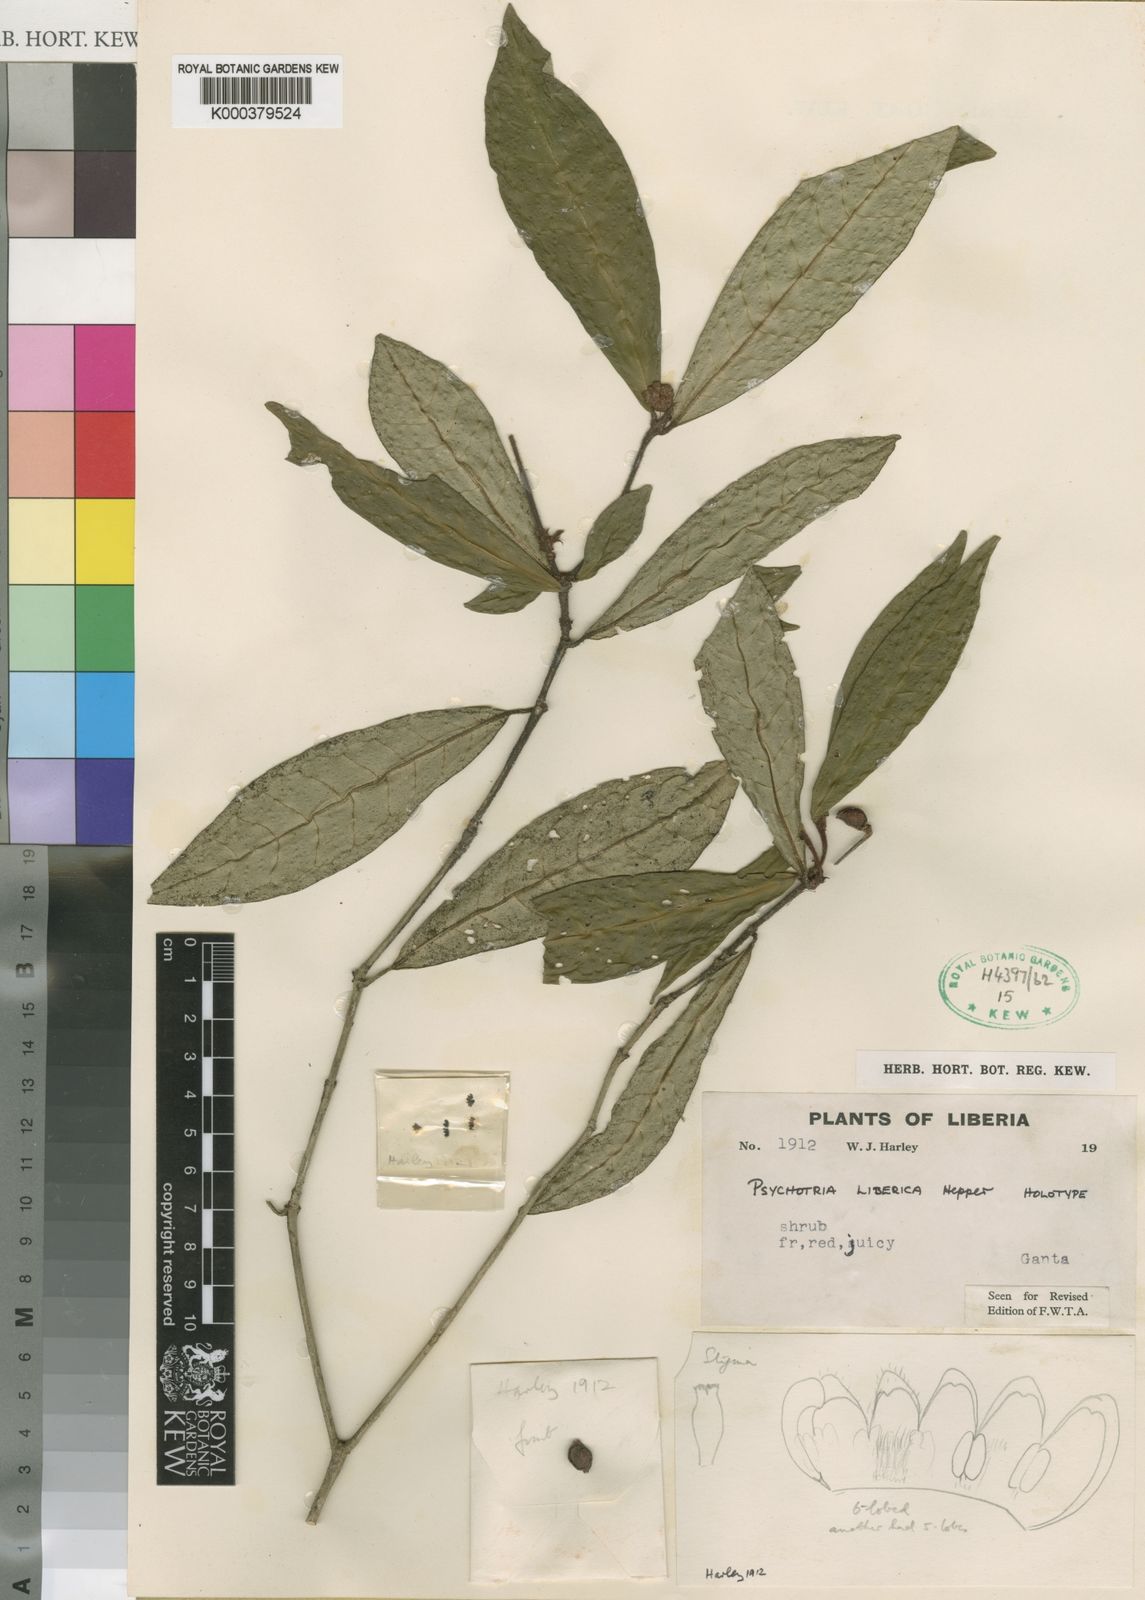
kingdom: Plantae
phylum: Tracheophyta
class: Magnoliopsida
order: Gentianales
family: Rubiaceae
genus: Psychotria
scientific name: Psychotria liberica
